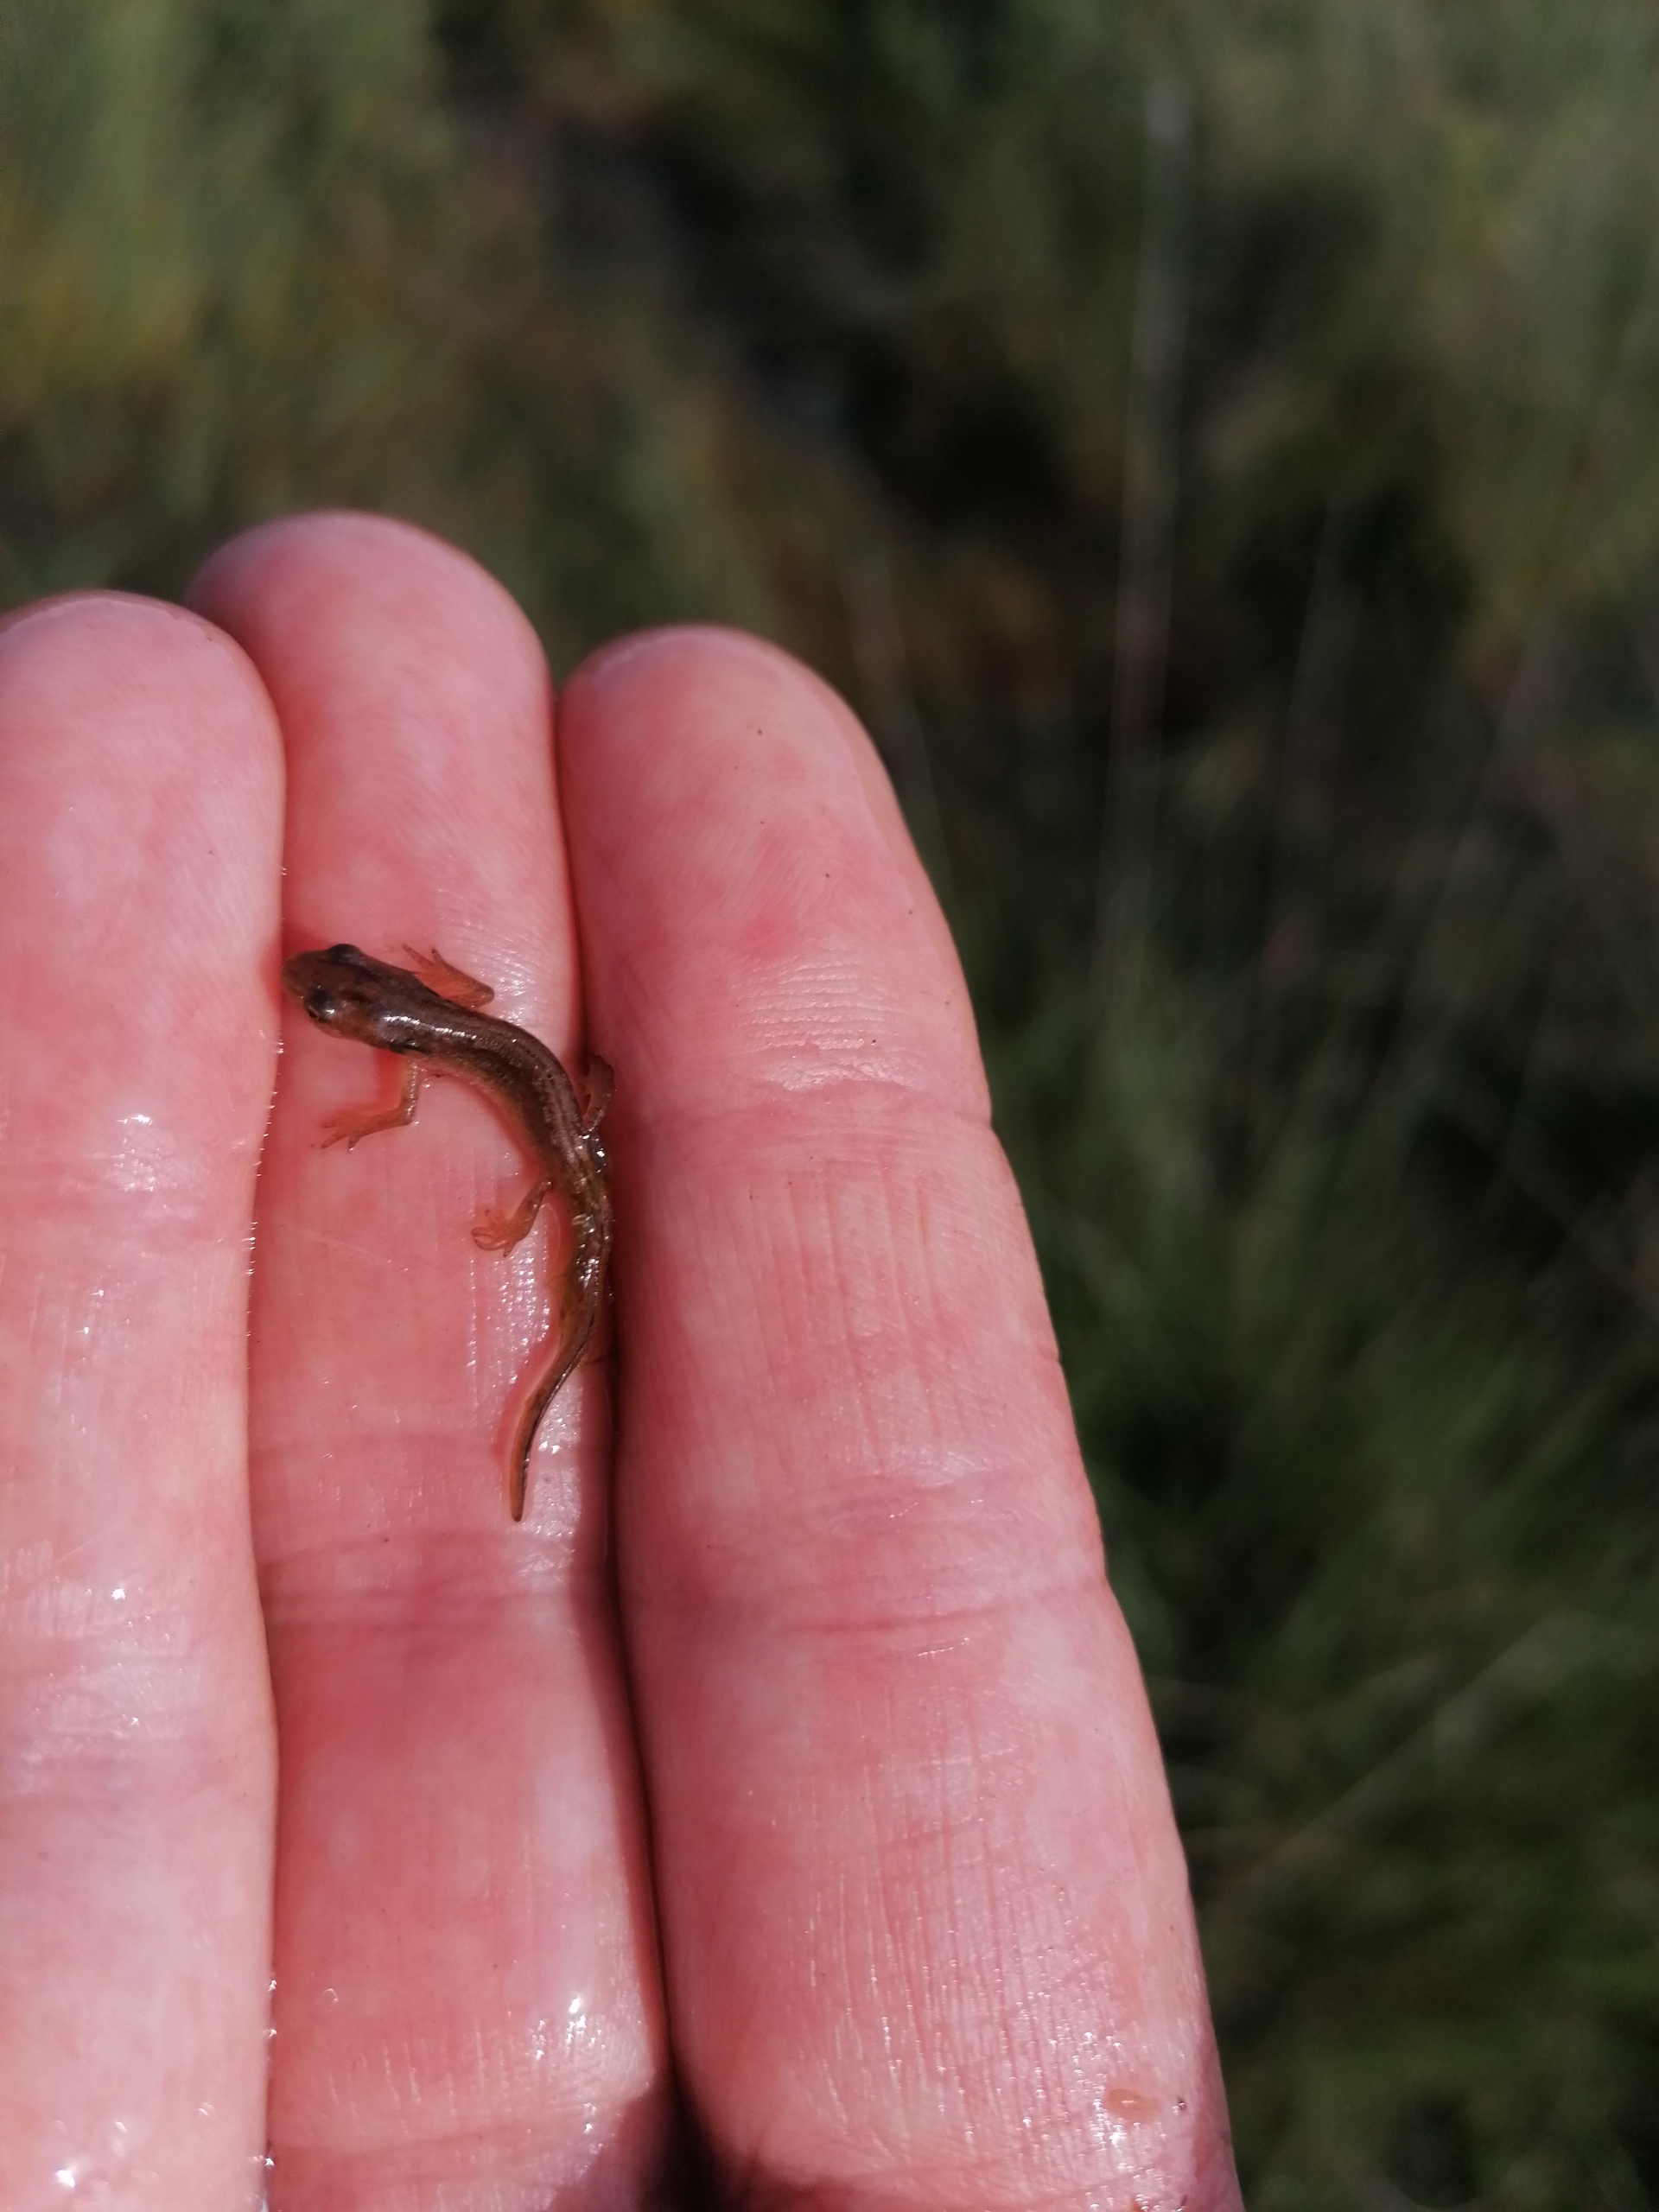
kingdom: Animalia
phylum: Chordata
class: Amphibia
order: Caudata
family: Salamandridae
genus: Lissotriton
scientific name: Lissotriton vulgaris
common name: Lille vandsalamander
